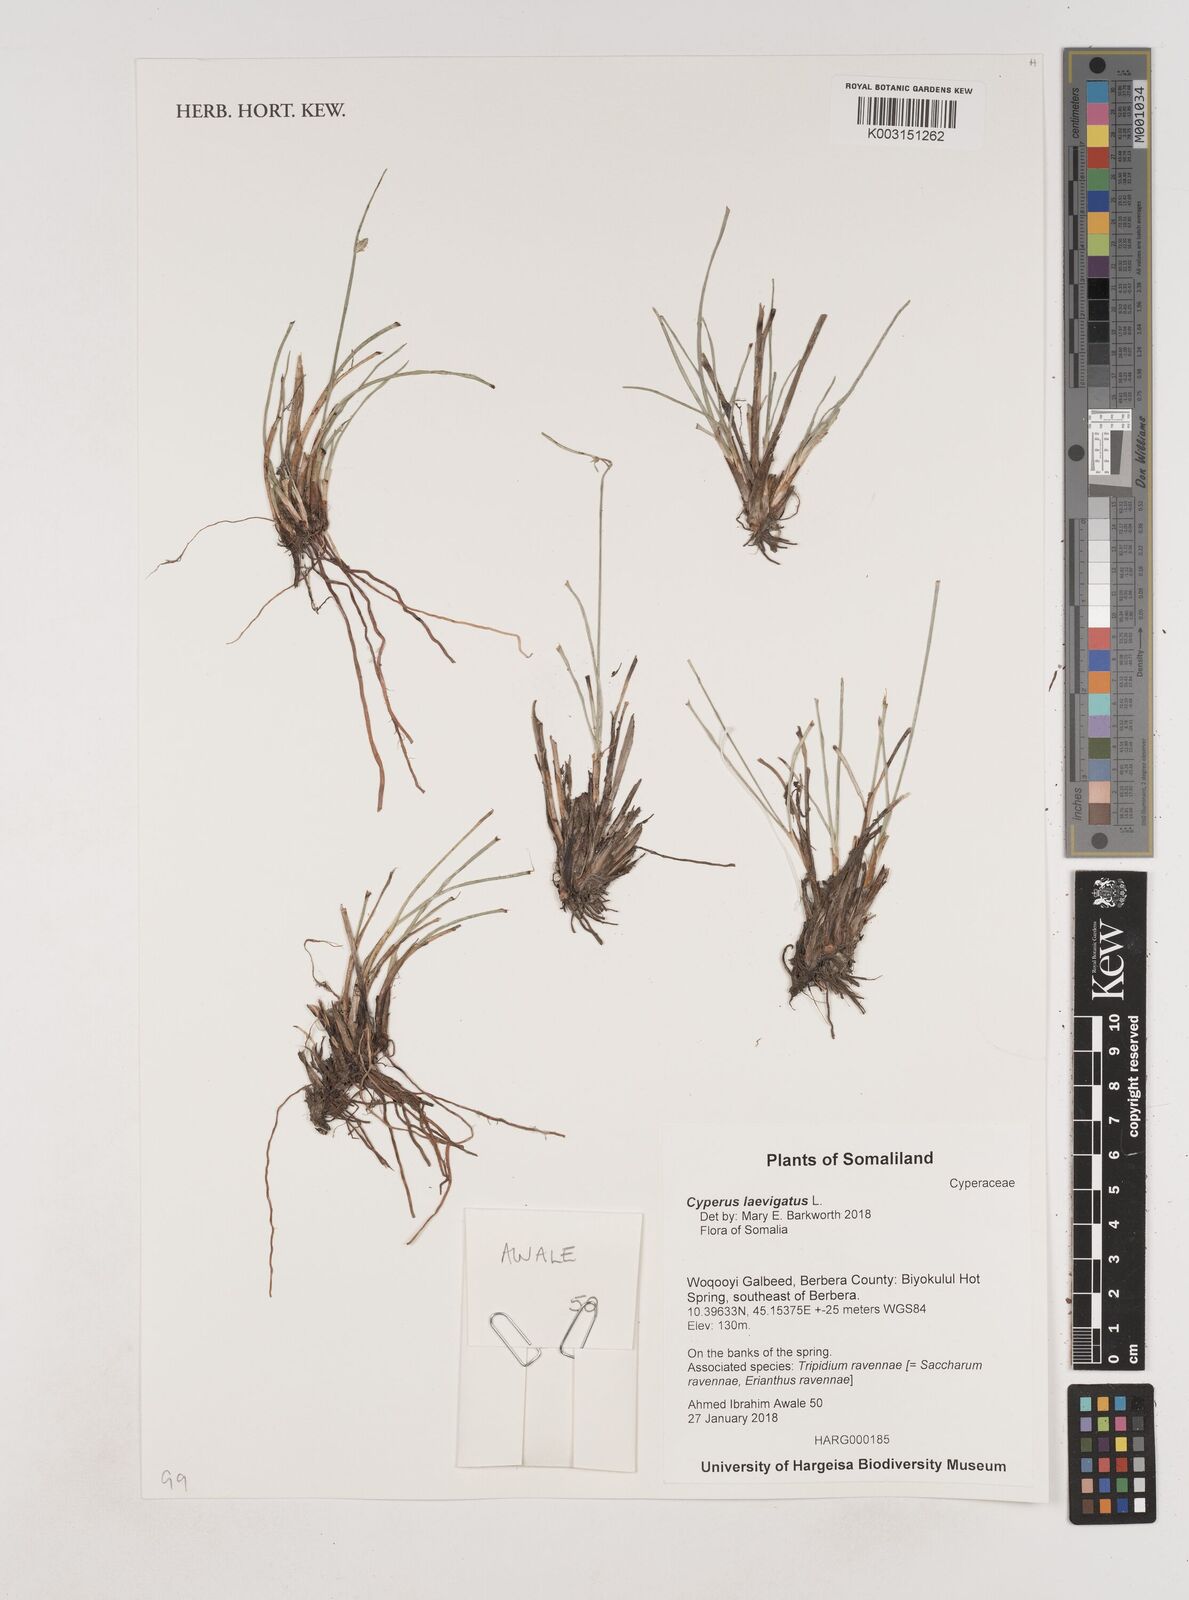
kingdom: Plantae
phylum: Tracheophyta
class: Liliopsida
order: Poales
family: Cyperaceae
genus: Cyperus
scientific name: Cyperus laevigatus
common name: Smooth flat sedge
